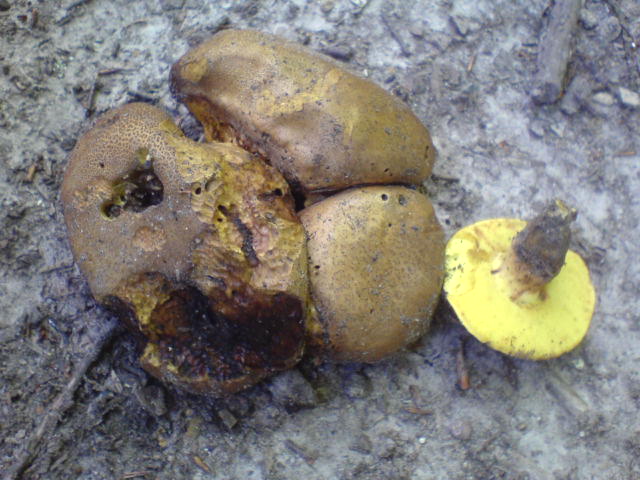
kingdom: Fungi
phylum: Basidiomycota
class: Agaricomycetes
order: Boletales
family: Boletaceae
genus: Butyriboletus
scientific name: Butyriboletus appendiculatus
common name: tenstokket rørhat
